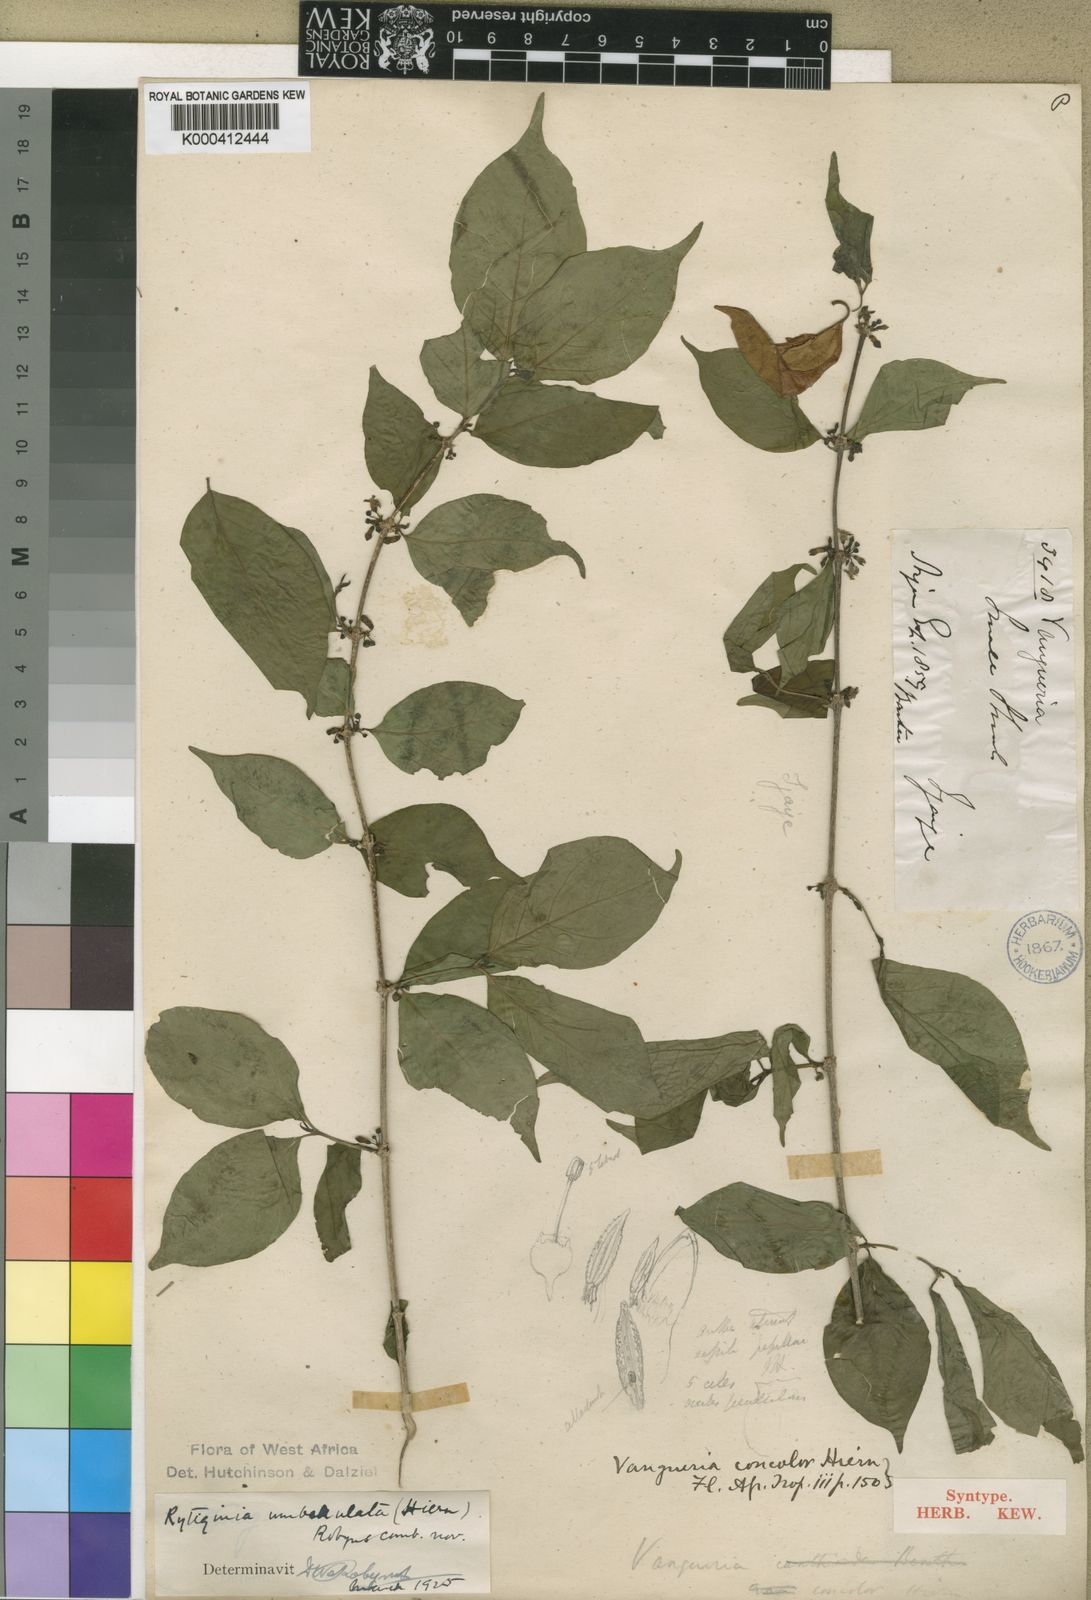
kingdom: Plantae
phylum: Tracheophyta
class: Magnoliopsida
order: Gentianales
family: Rubiaceae
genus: Rytigynia
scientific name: Rytigynia umbellulata
